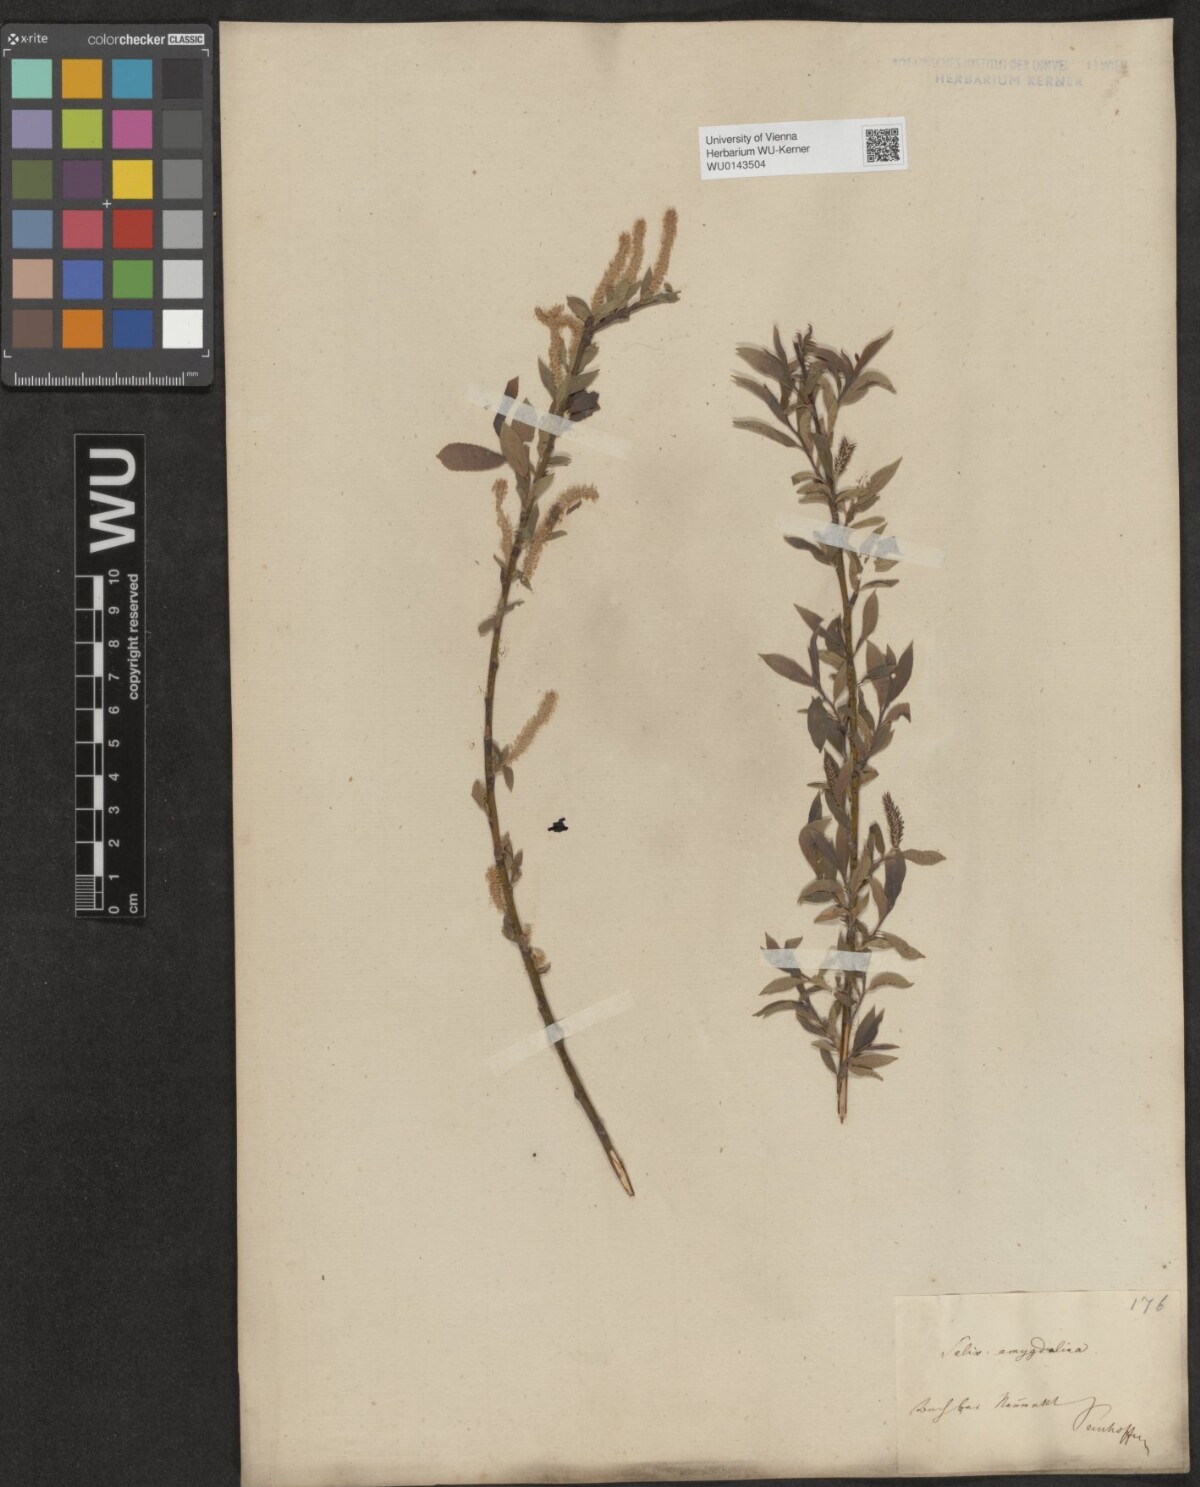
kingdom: Plantae
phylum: Tracheophyta
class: Magnoliopsida
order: Malpighiales
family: Salicaceae
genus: Salix
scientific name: Salix triandra
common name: Almond willow
